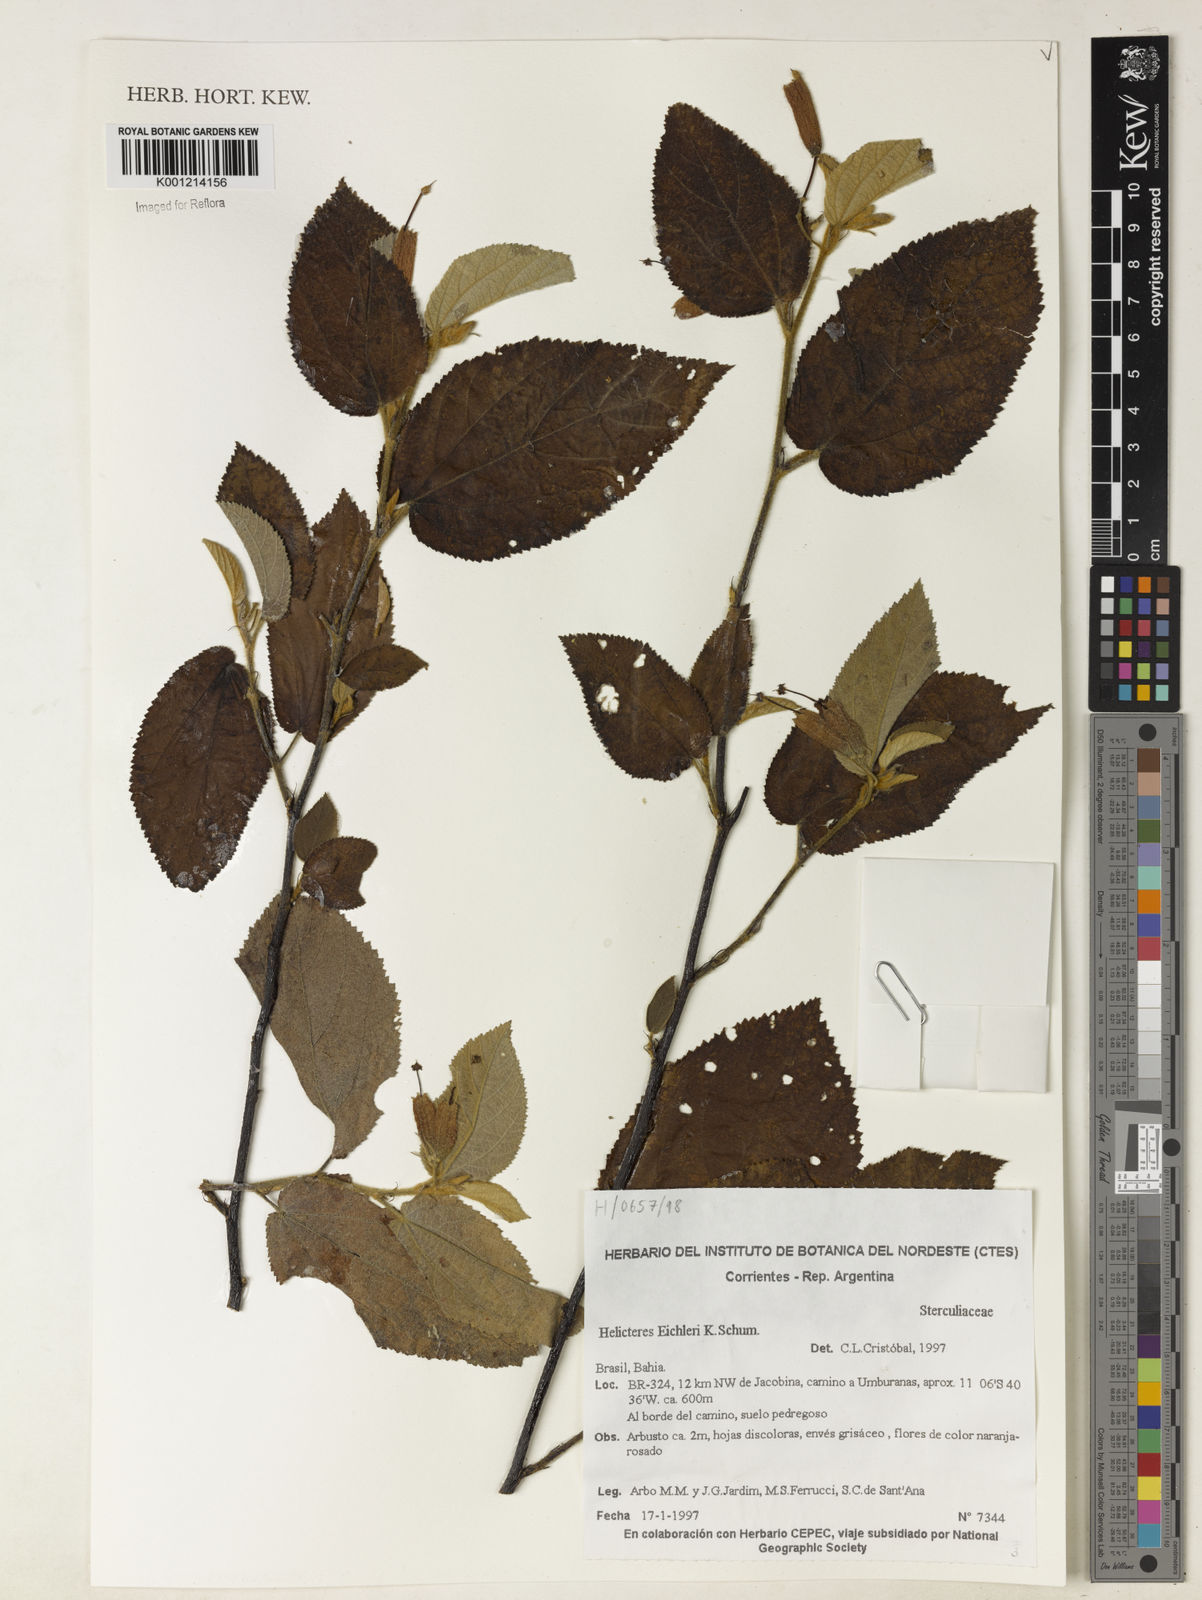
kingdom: Plantae
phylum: Tracheophyta
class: Magnoliopsida
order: Malvales
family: Malvaceae
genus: Helicteres
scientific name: Helicteres eichleri
